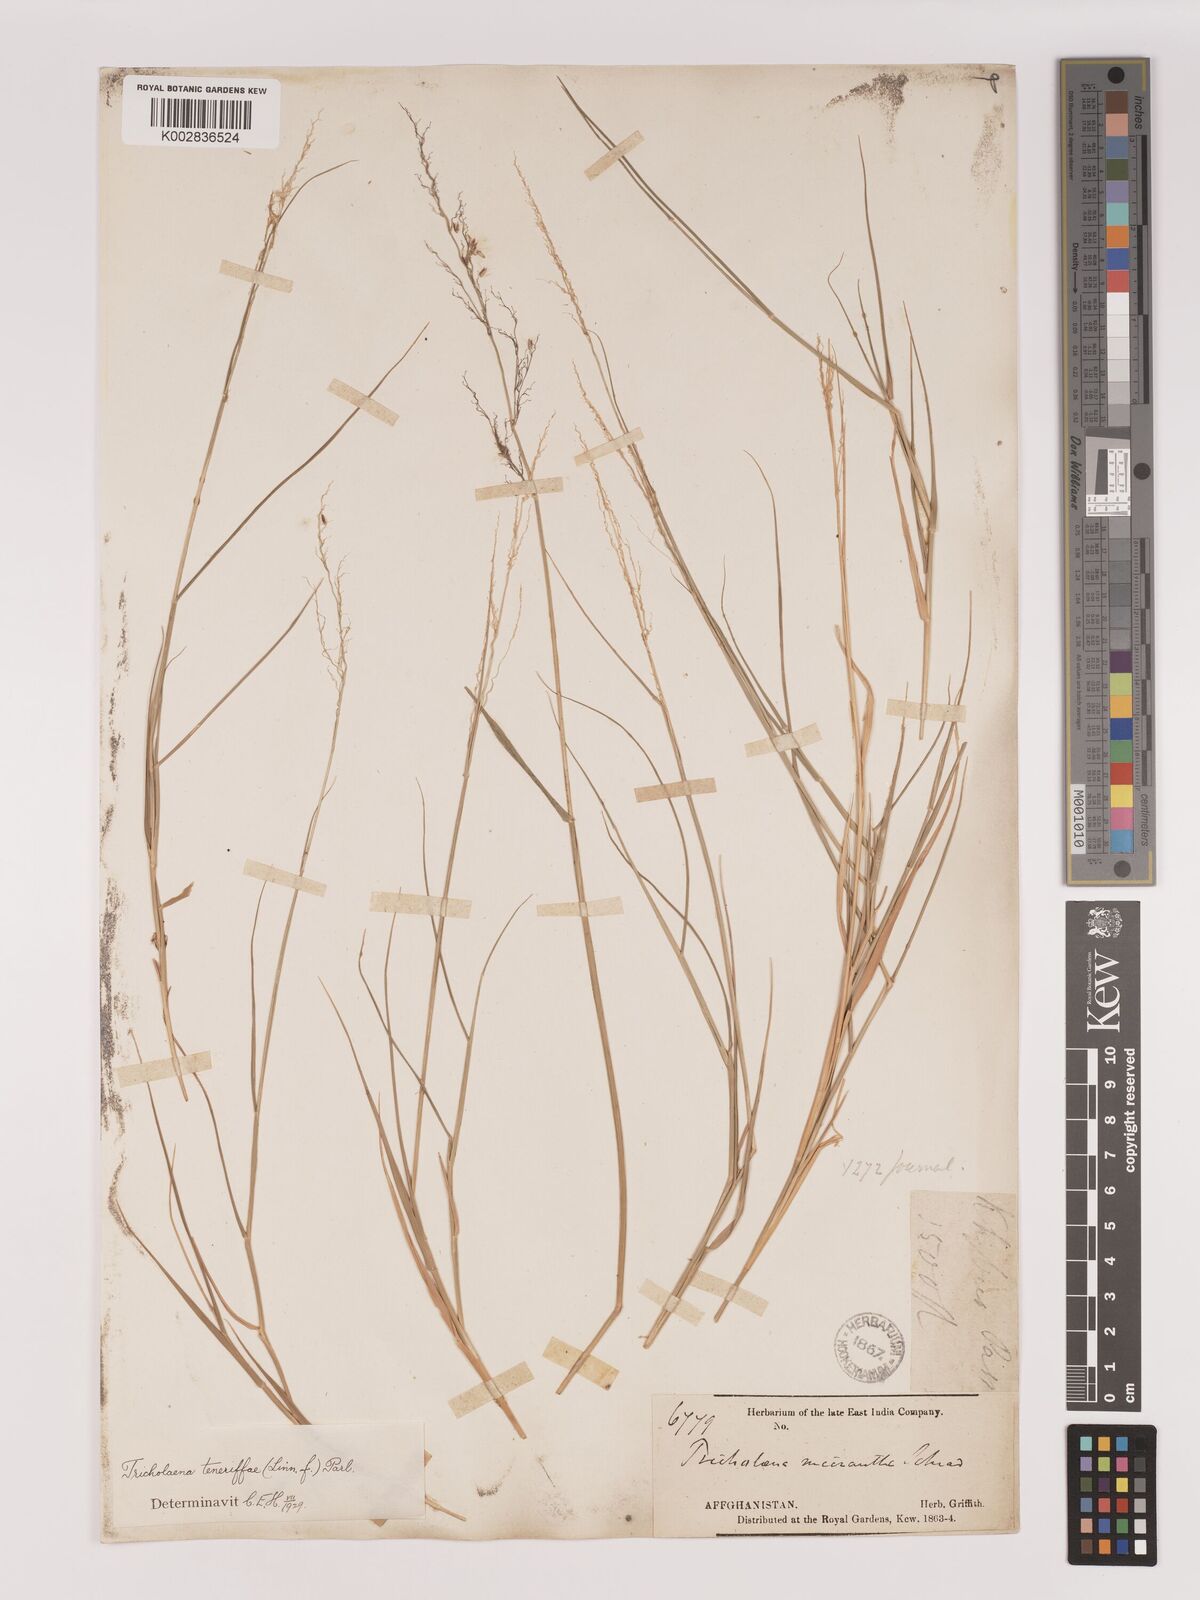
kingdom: Plantae
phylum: Tracheophyta
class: Liliopsida
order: Poales
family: Poaceae
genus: Tricholaena
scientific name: Tricholaena teneriffae
